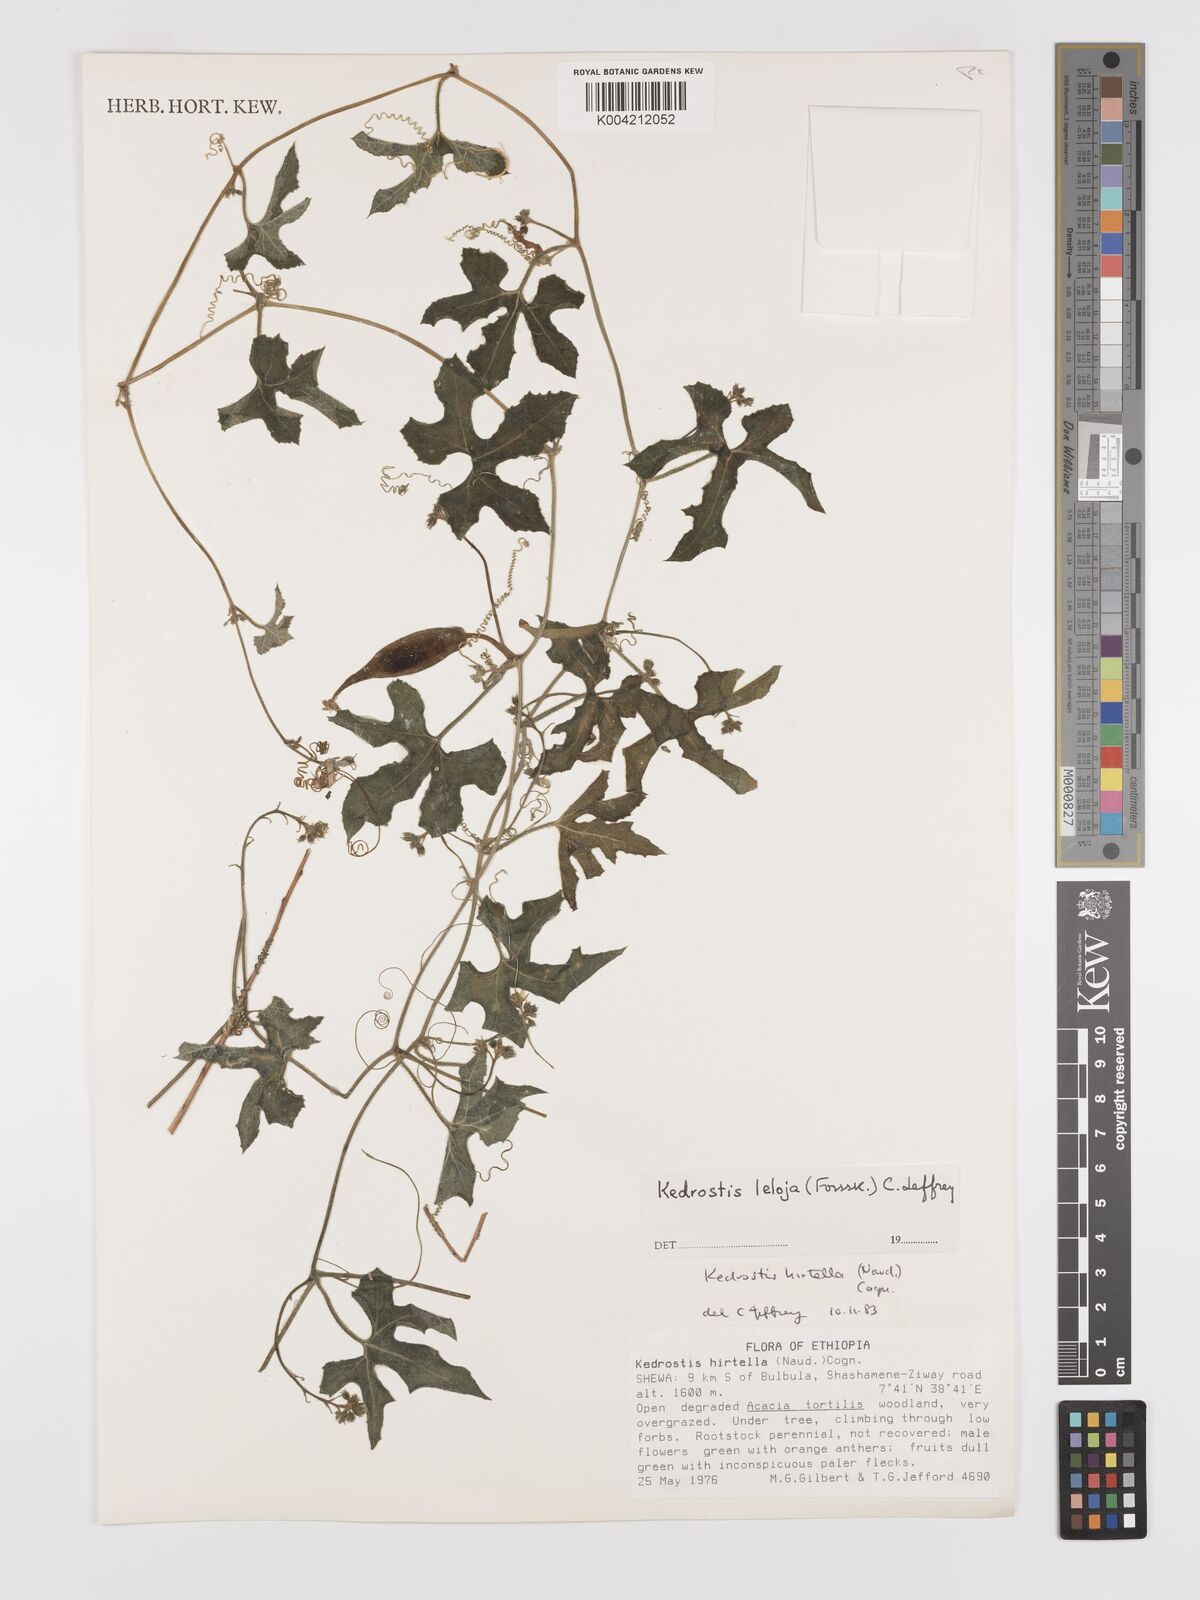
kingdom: Plantae
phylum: Tracheophyta
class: Magnoliopsida
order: Cucurbitales
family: Cucurbitaceae
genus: Kedrostis
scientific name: Kedrostis leloja
